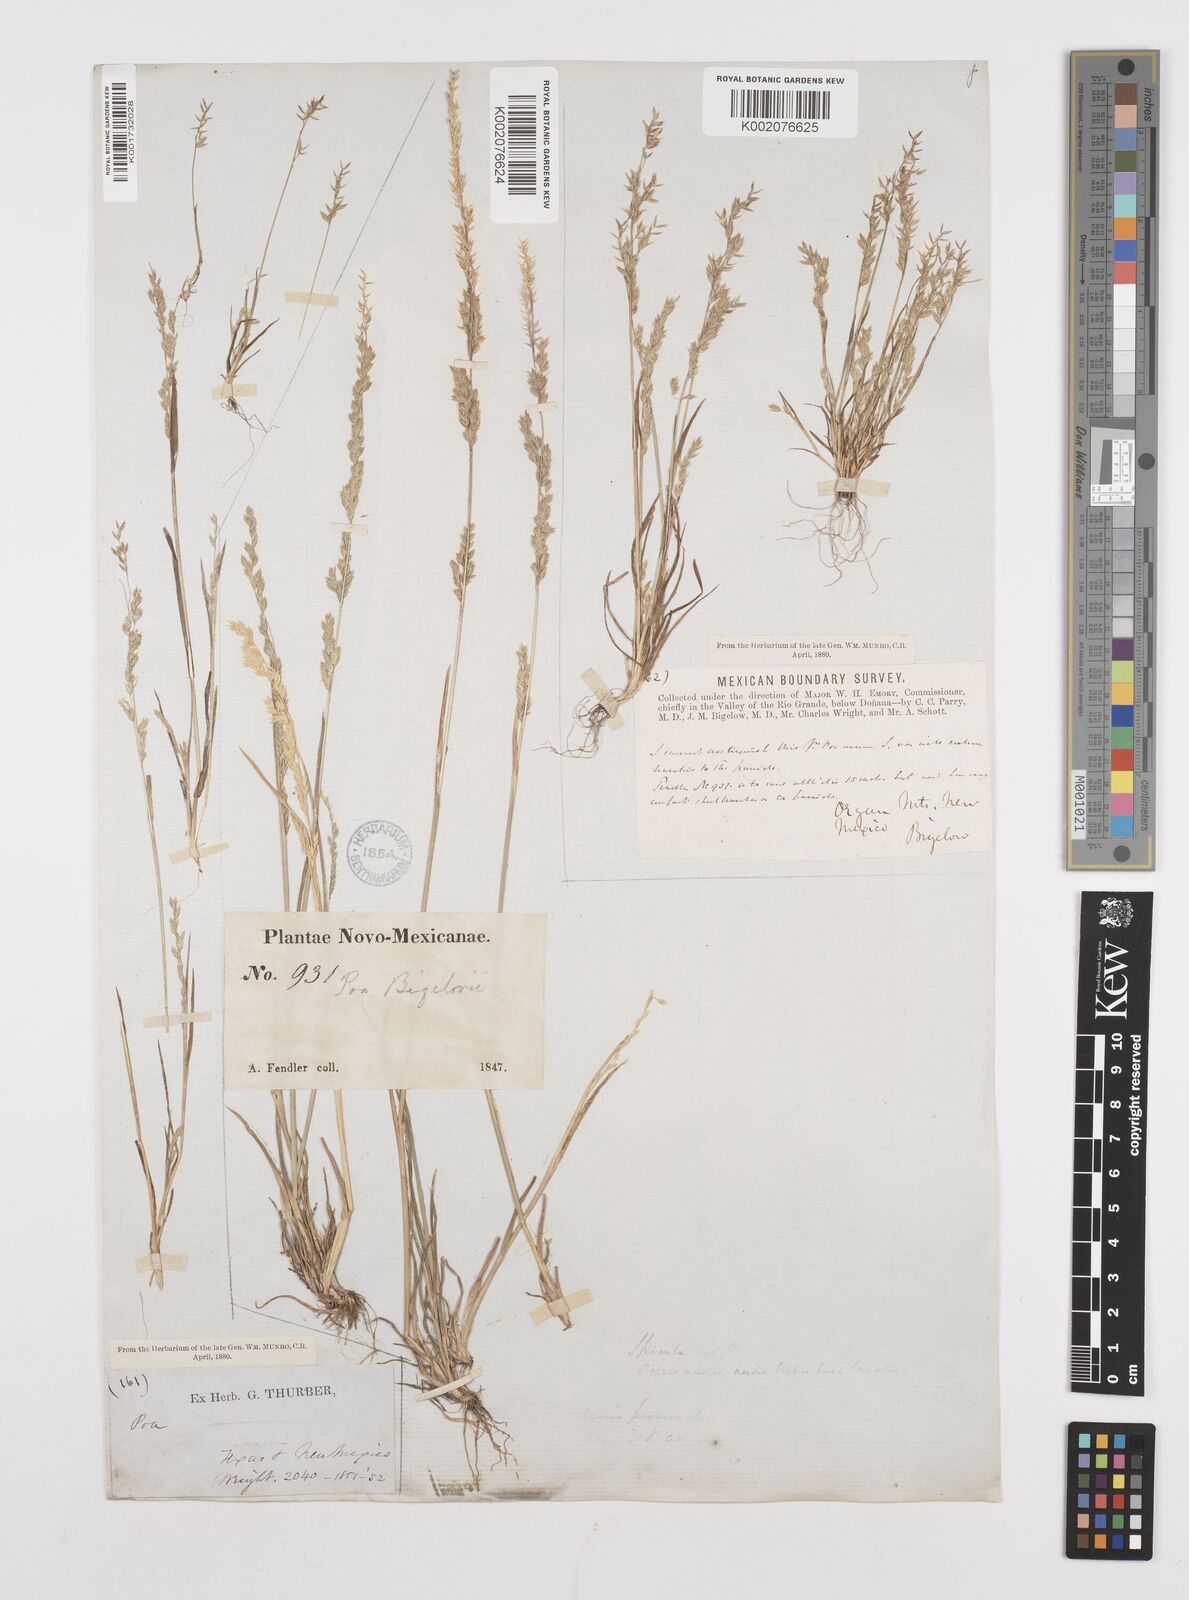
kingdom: Plantae
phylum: Tracheophyta
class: Liliopsida
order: Poales
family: Poaceae
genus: Poa
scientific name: Poa bigelovii
